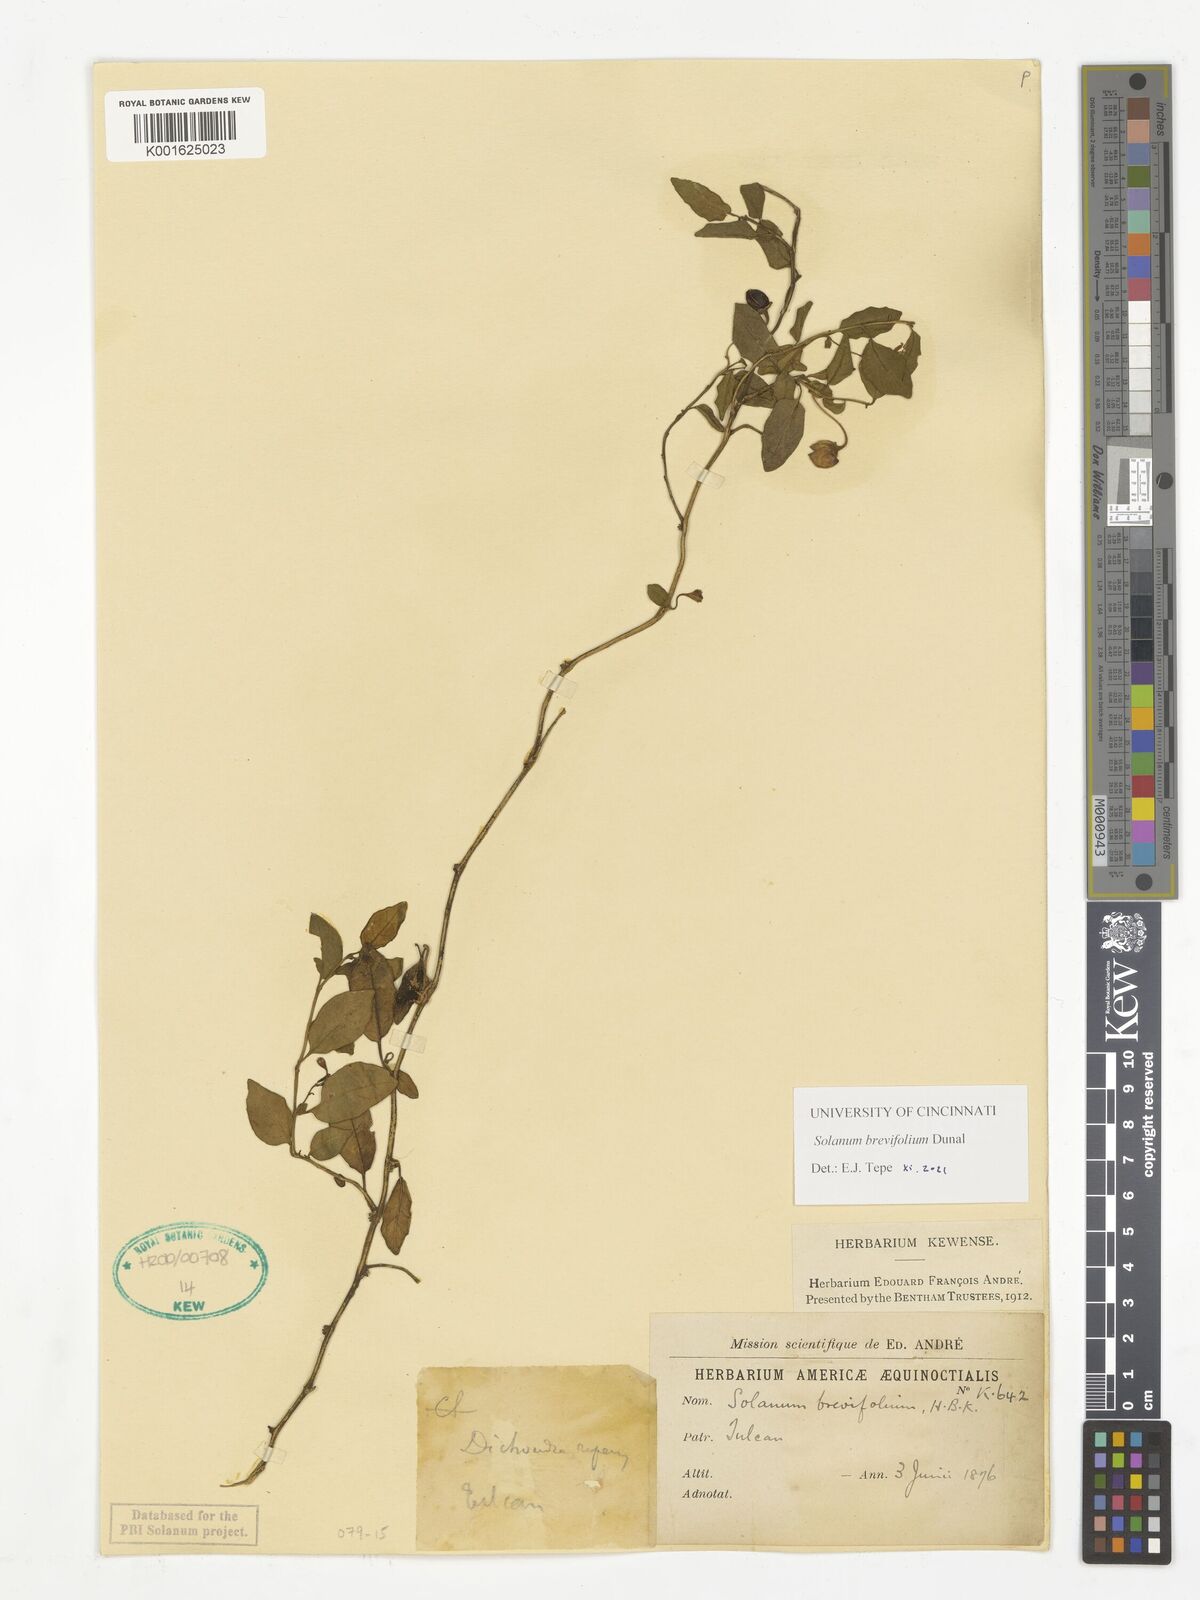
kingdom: Plantae
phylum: Tracheophyta
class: Magnoliopsida
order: Solanales
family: Solanaceae
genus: Solanum
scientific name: Solanum brevifolium
